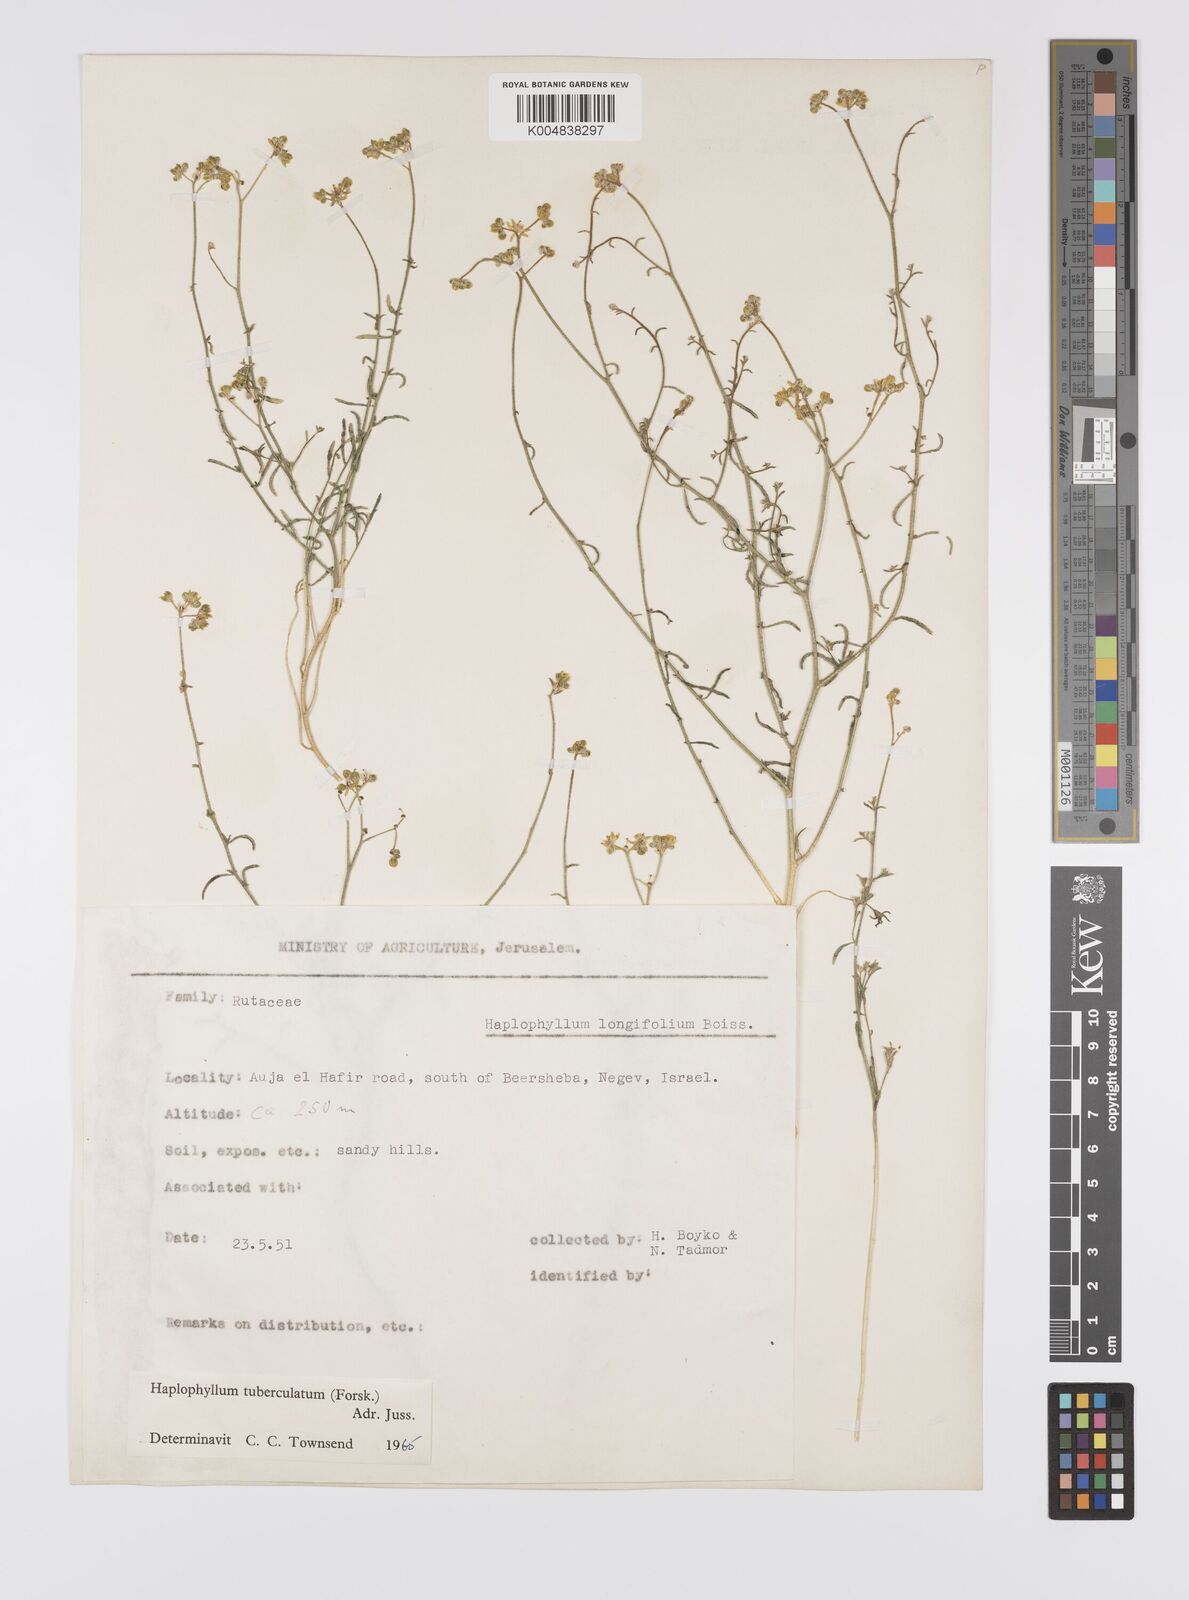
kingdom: Plantae
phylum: Tracheophyta
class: Magnoliopsida
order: Sapindales
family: Rutaceae
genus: Haplophyllum
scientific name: Haplophyllum tuberculatum
